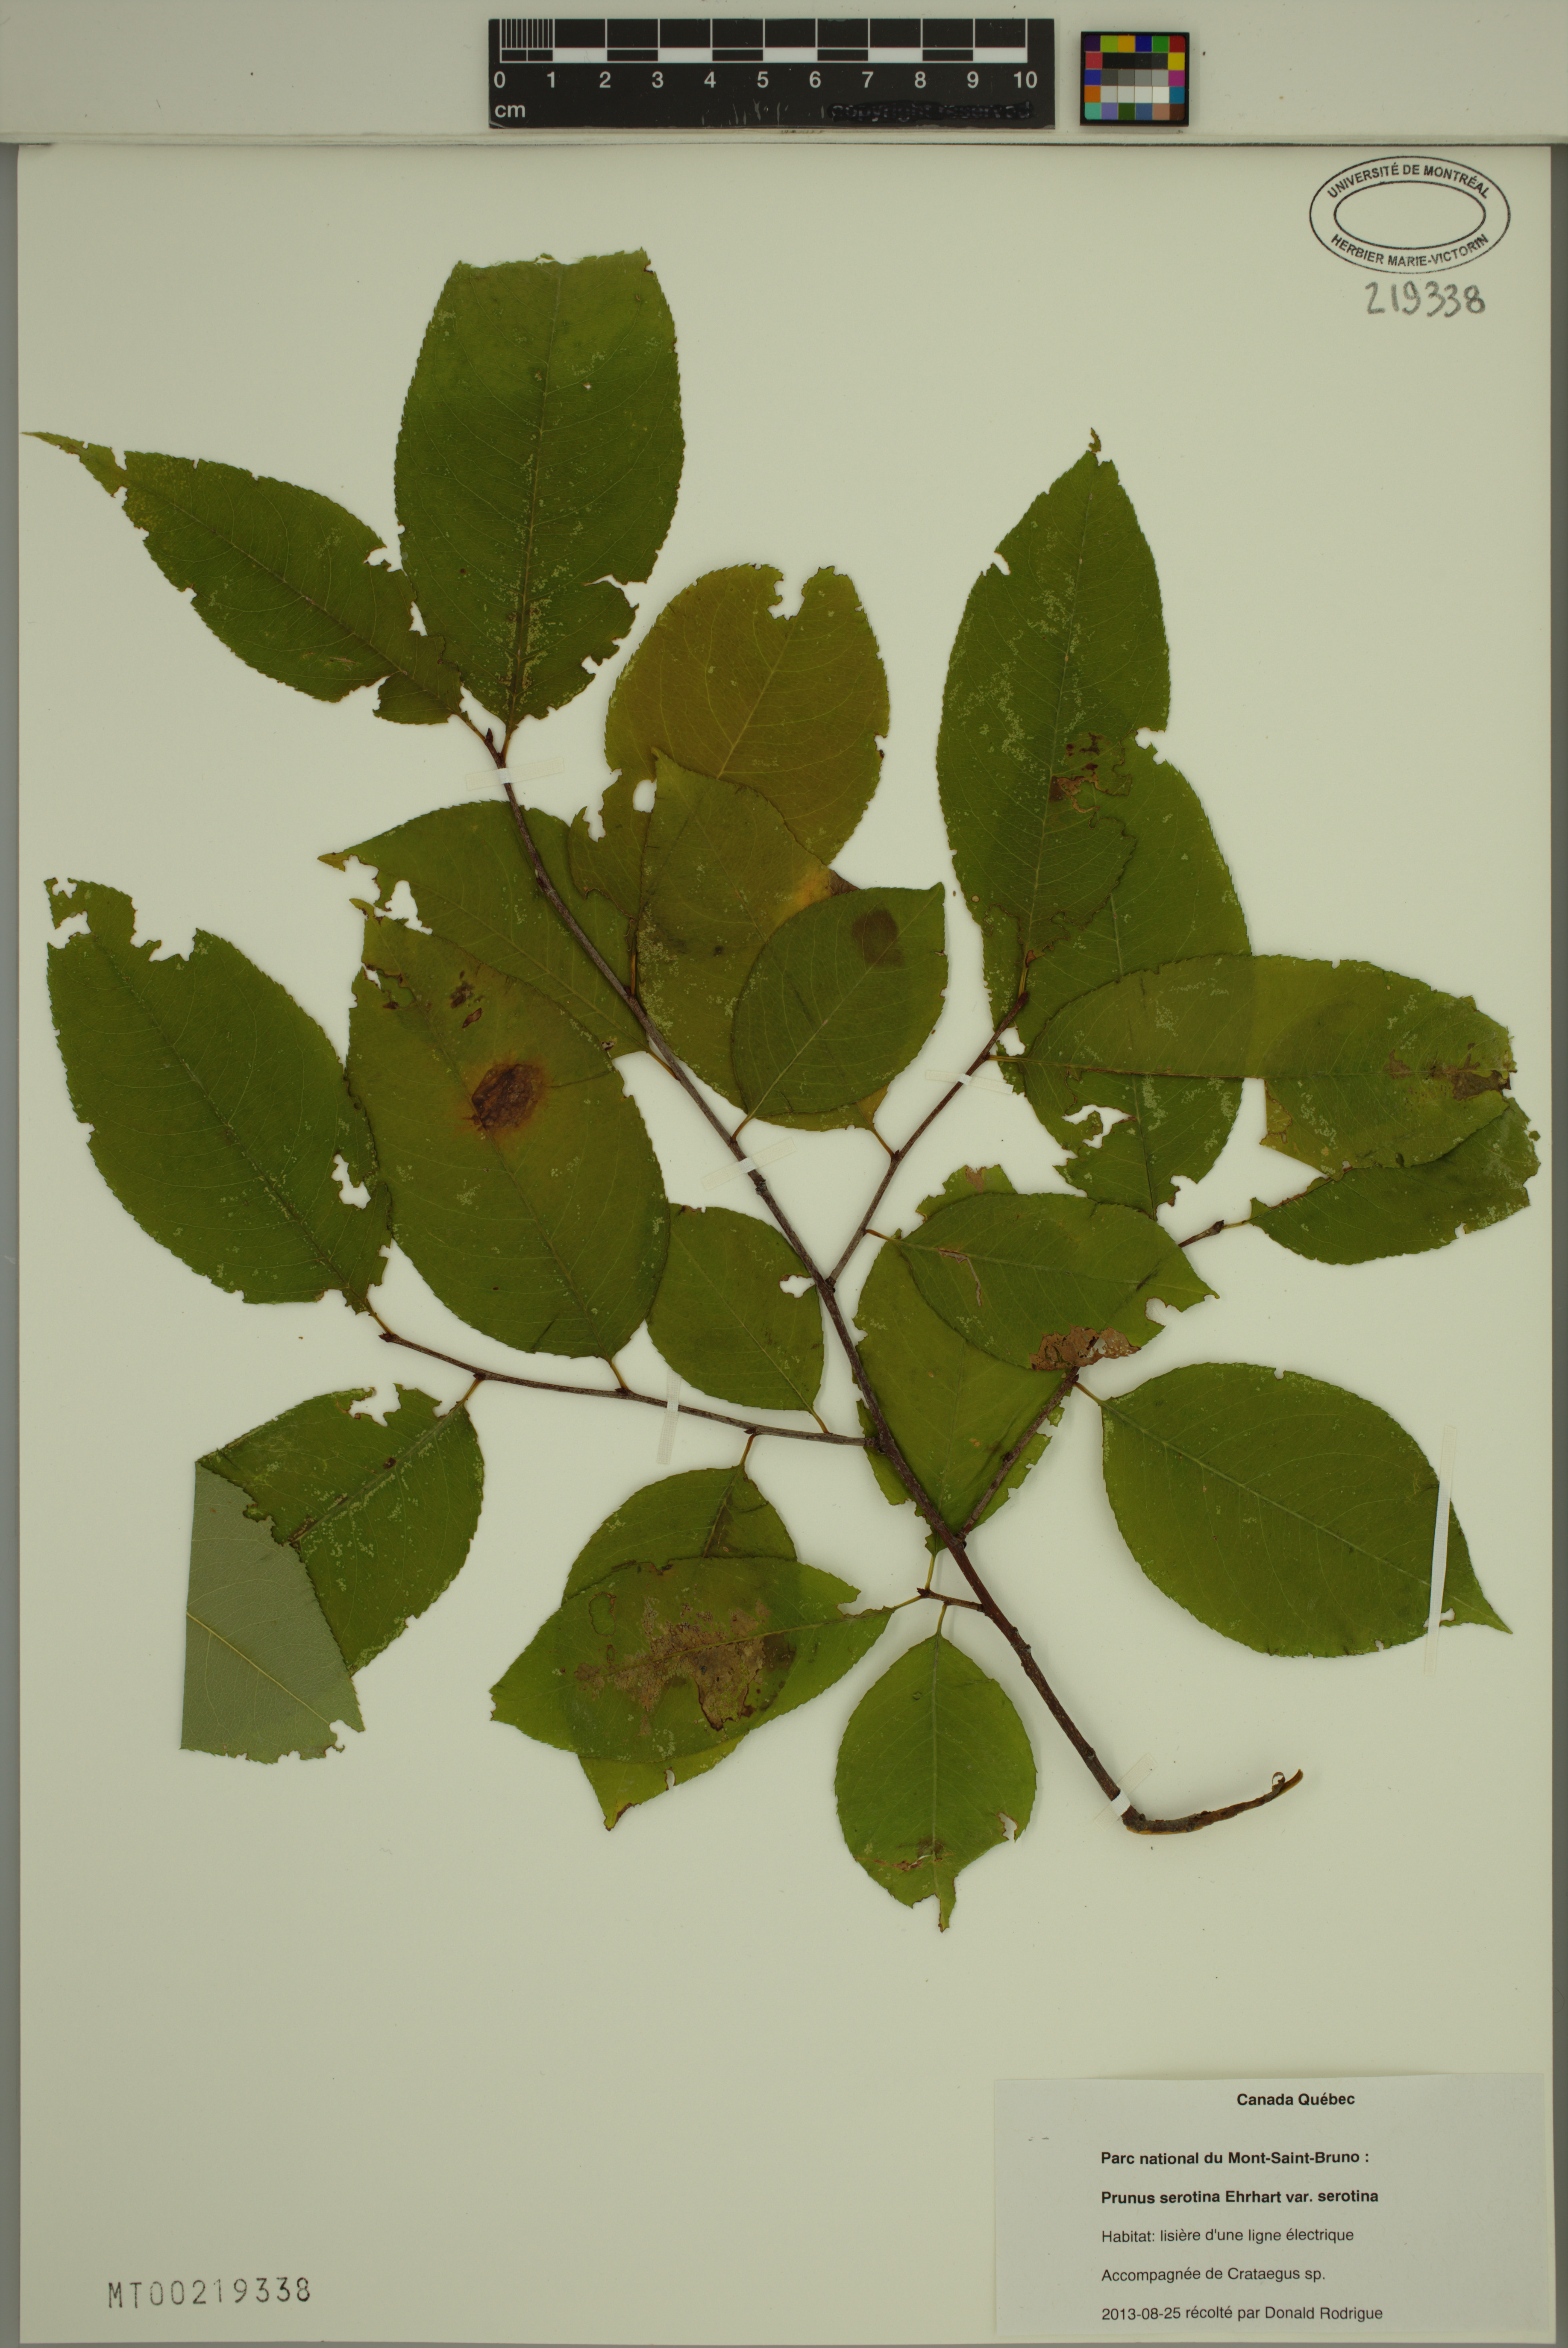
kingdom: Plantae
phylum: Tracheophyta
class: Magnoliopsida
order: Rosales
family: Rosaceae
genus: Prunus
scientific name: Prunus serotina
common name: Black cherry
